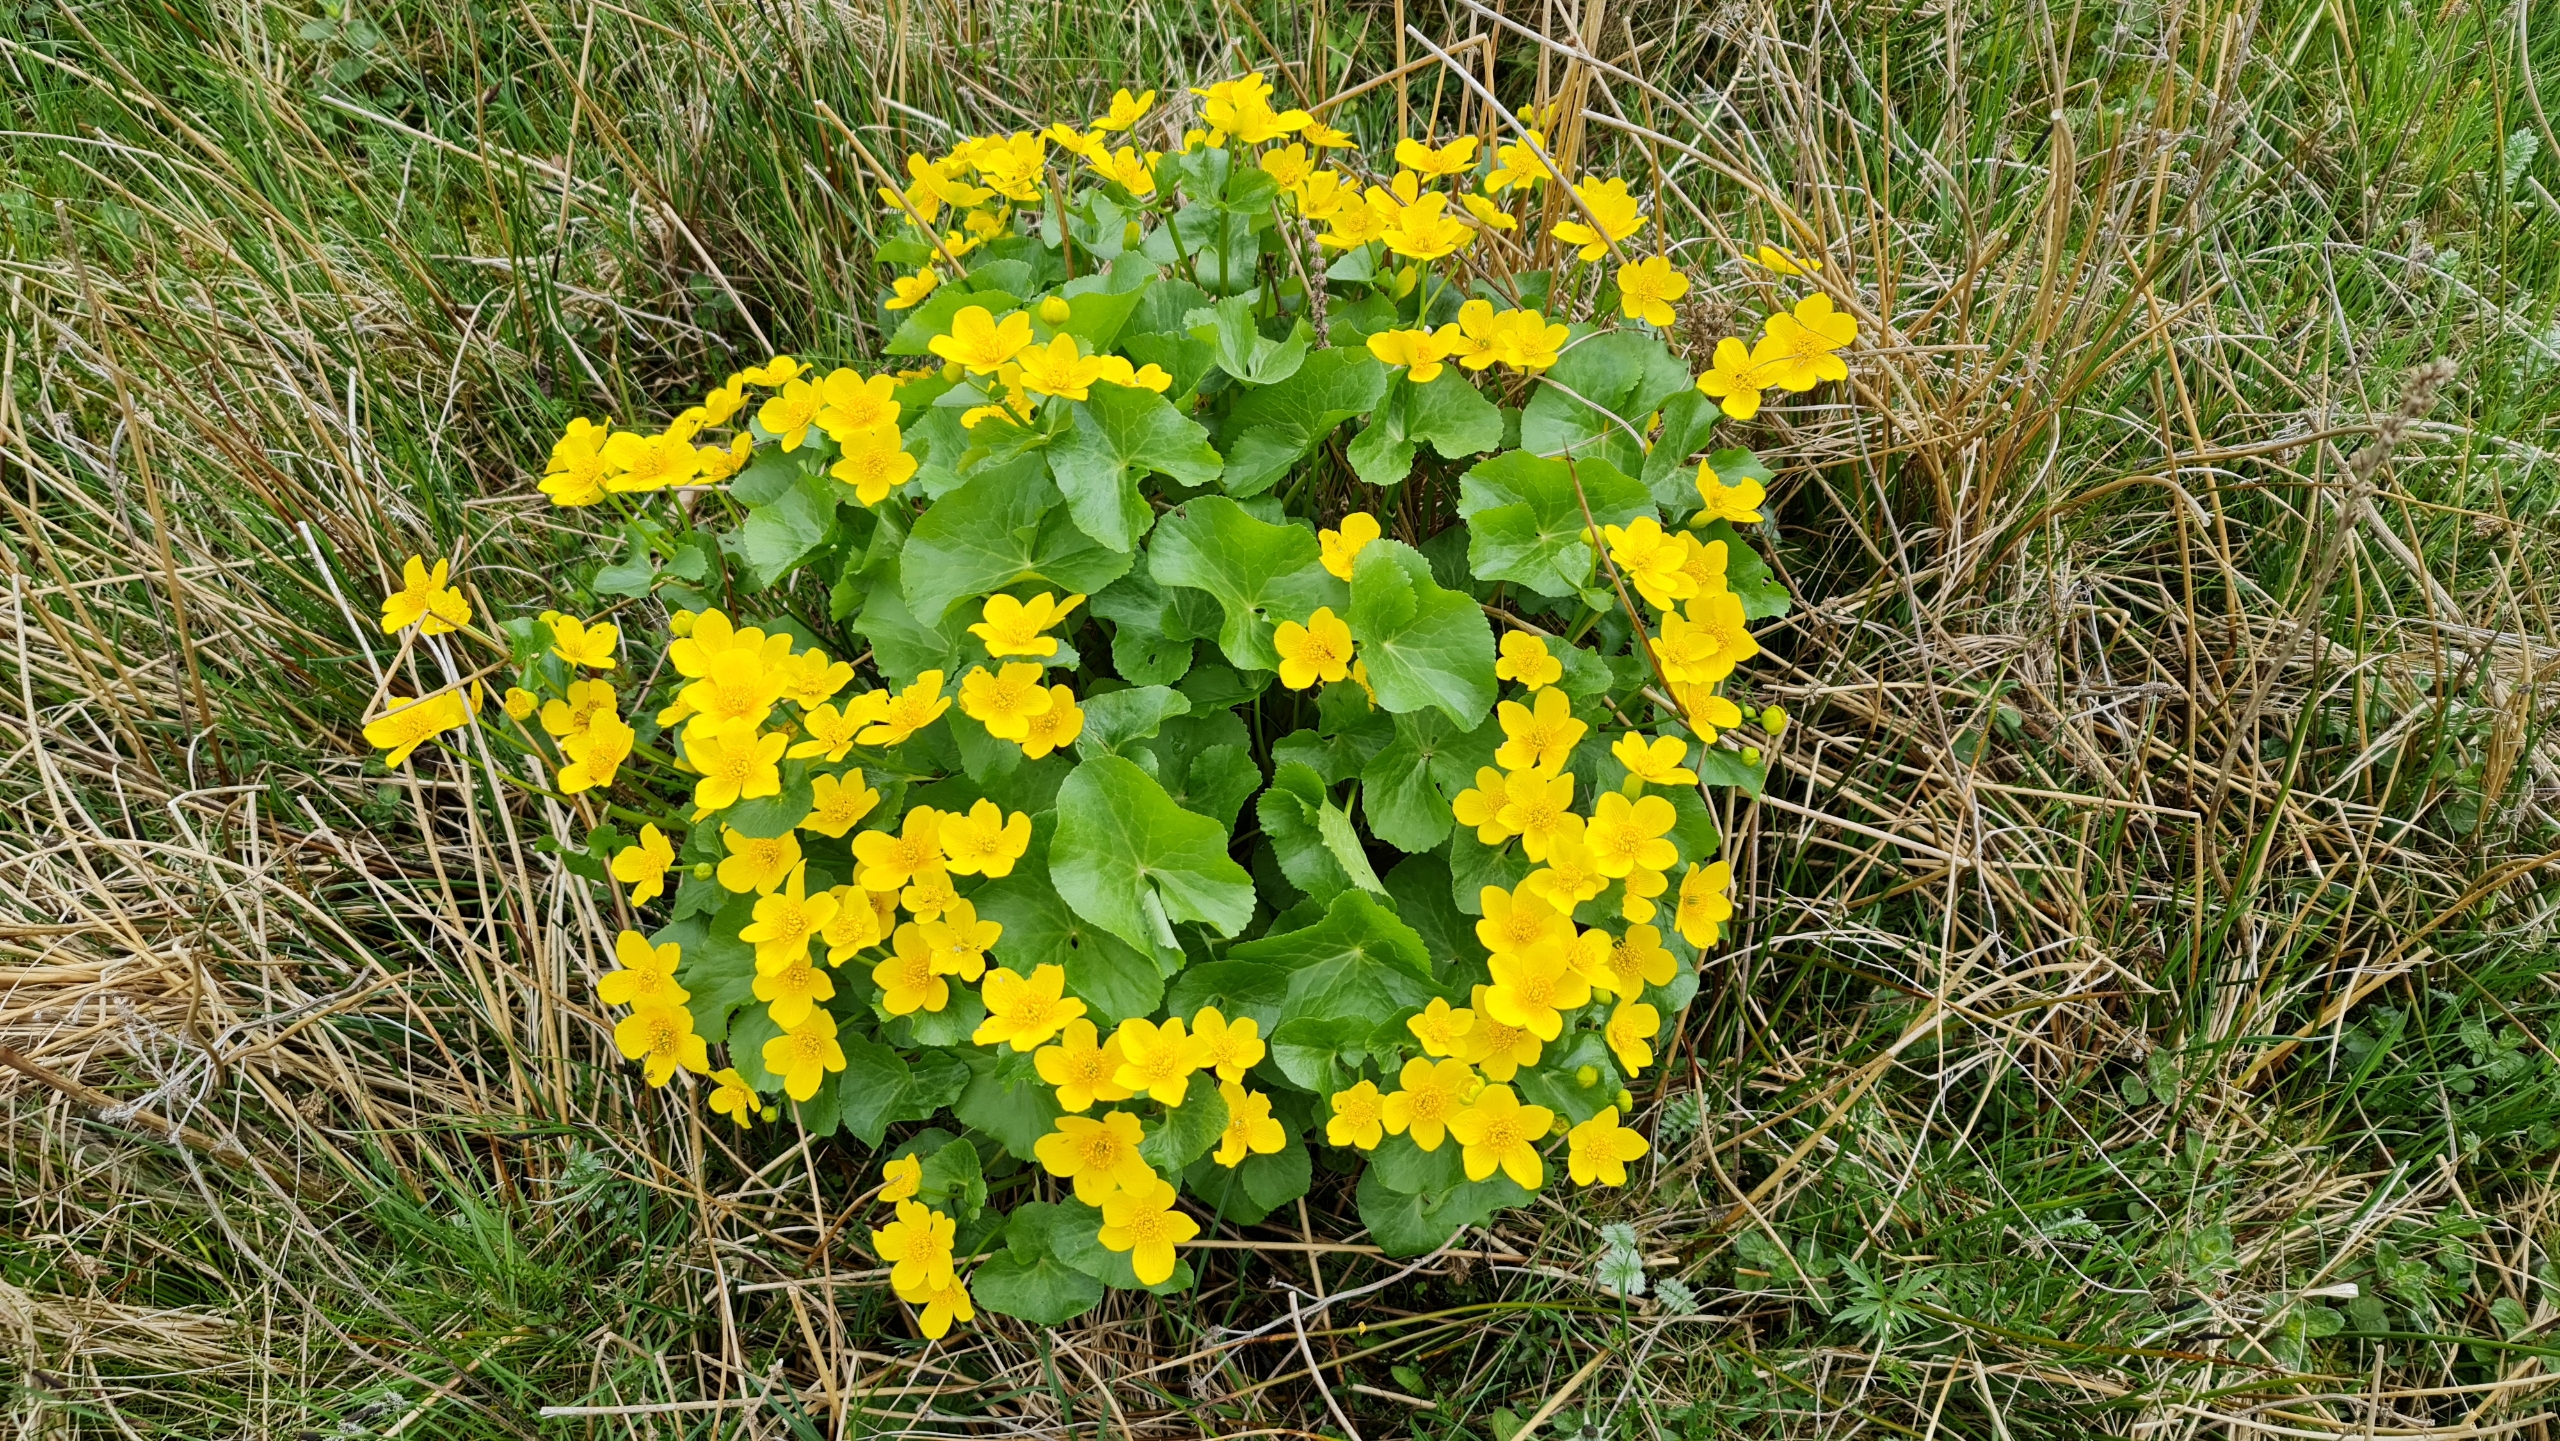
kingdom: Plantae
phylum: Tracheophyta
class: Magnoliopsida
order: Ranunculales
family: Ranunculaceae
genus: Caltha
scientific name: Caltha palustris
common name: Eng-kabbeleje
